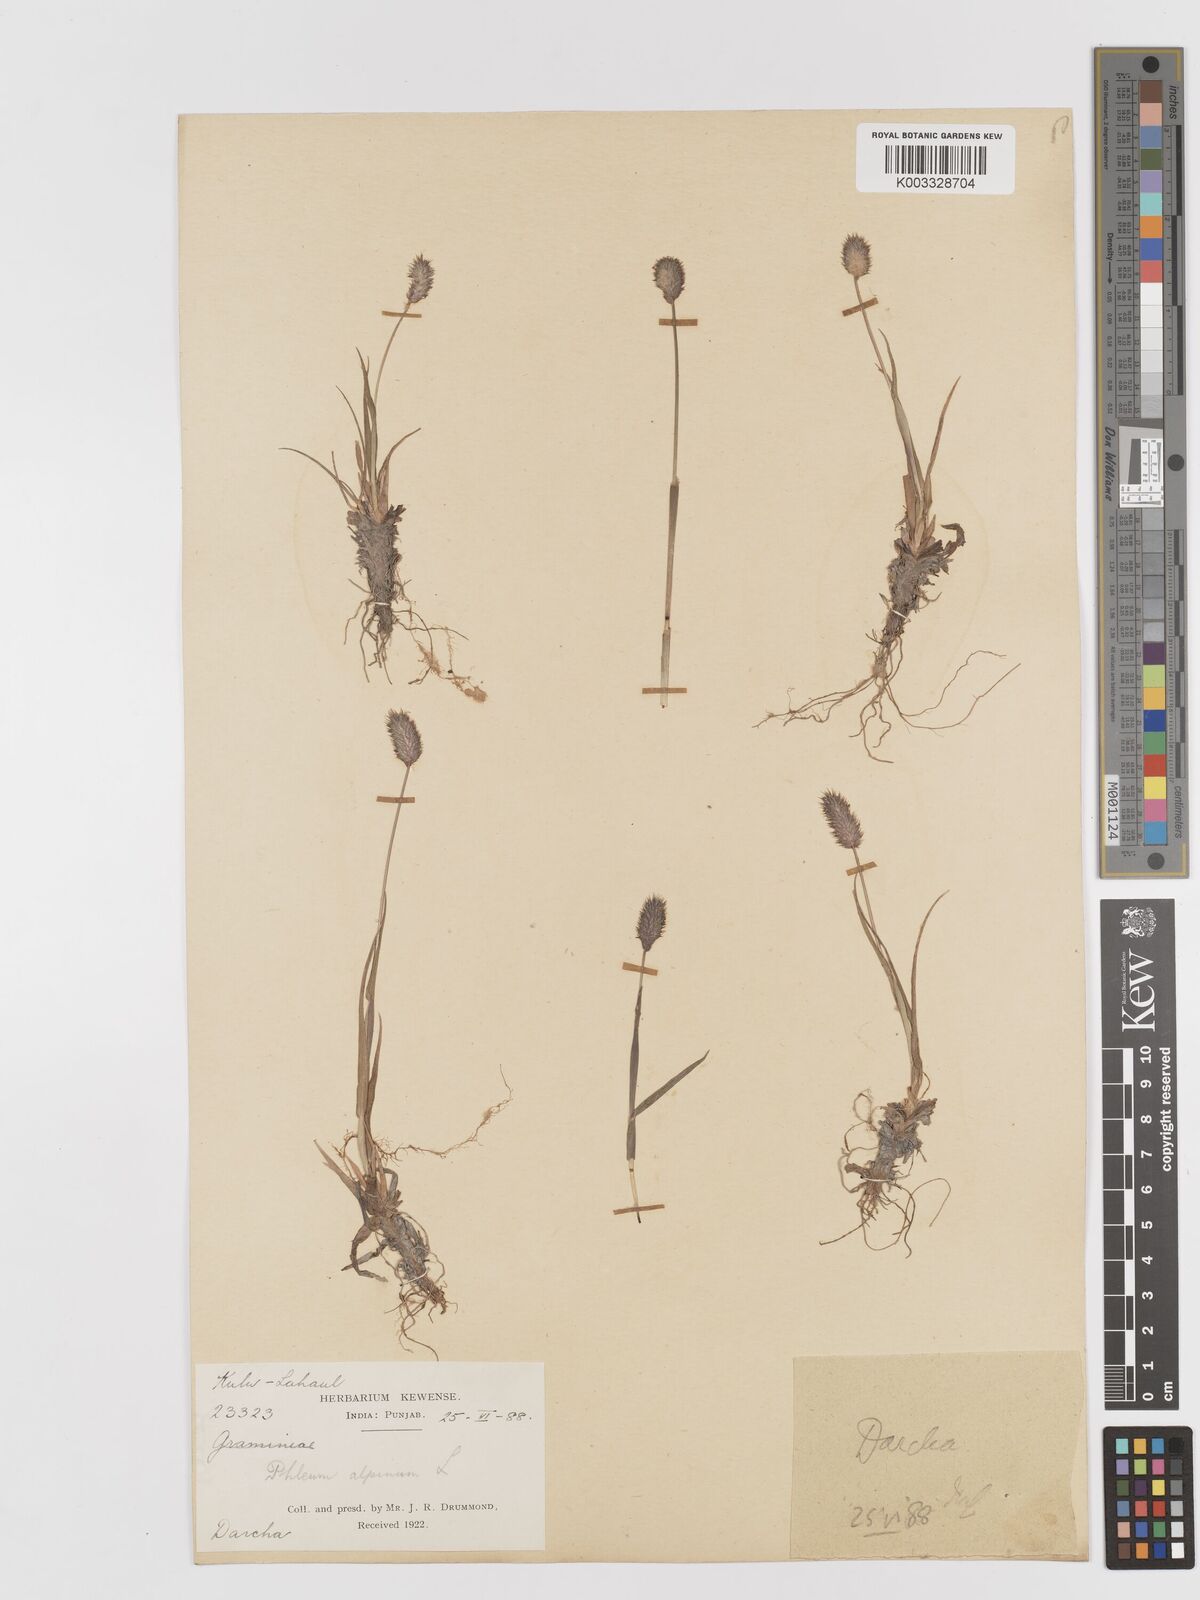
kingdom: Plantae
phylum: Tracheophyta
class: Liliopsida
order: Poales
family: Poaceae
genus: Phleum
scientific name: Phleum alpinum
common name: Alpine cat's-tail
